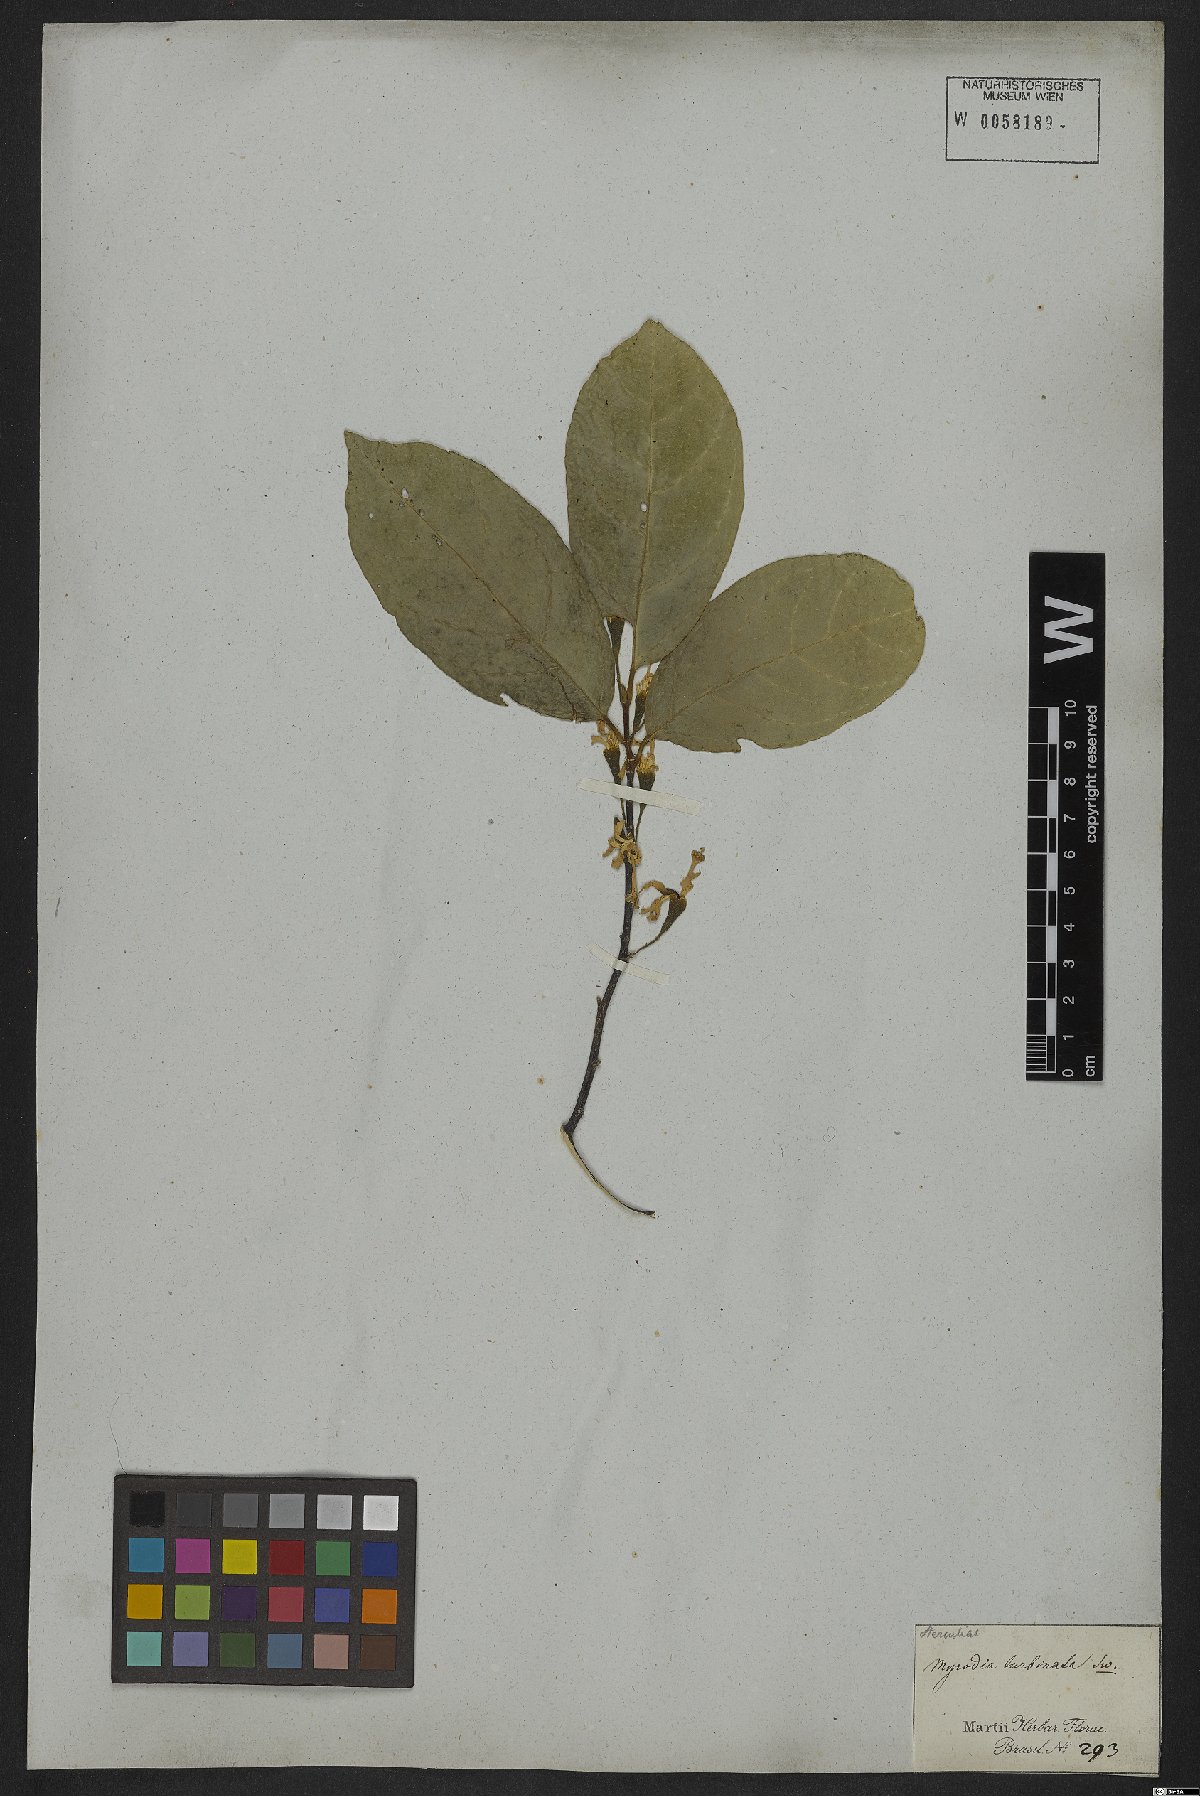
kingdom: Plantae
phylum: Tracheophyta
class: Magnoliopsida
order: Malvales
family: Malvaceae
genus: Quararibea
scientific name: Quararibea turbinata
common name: Swizzlestick-tree
